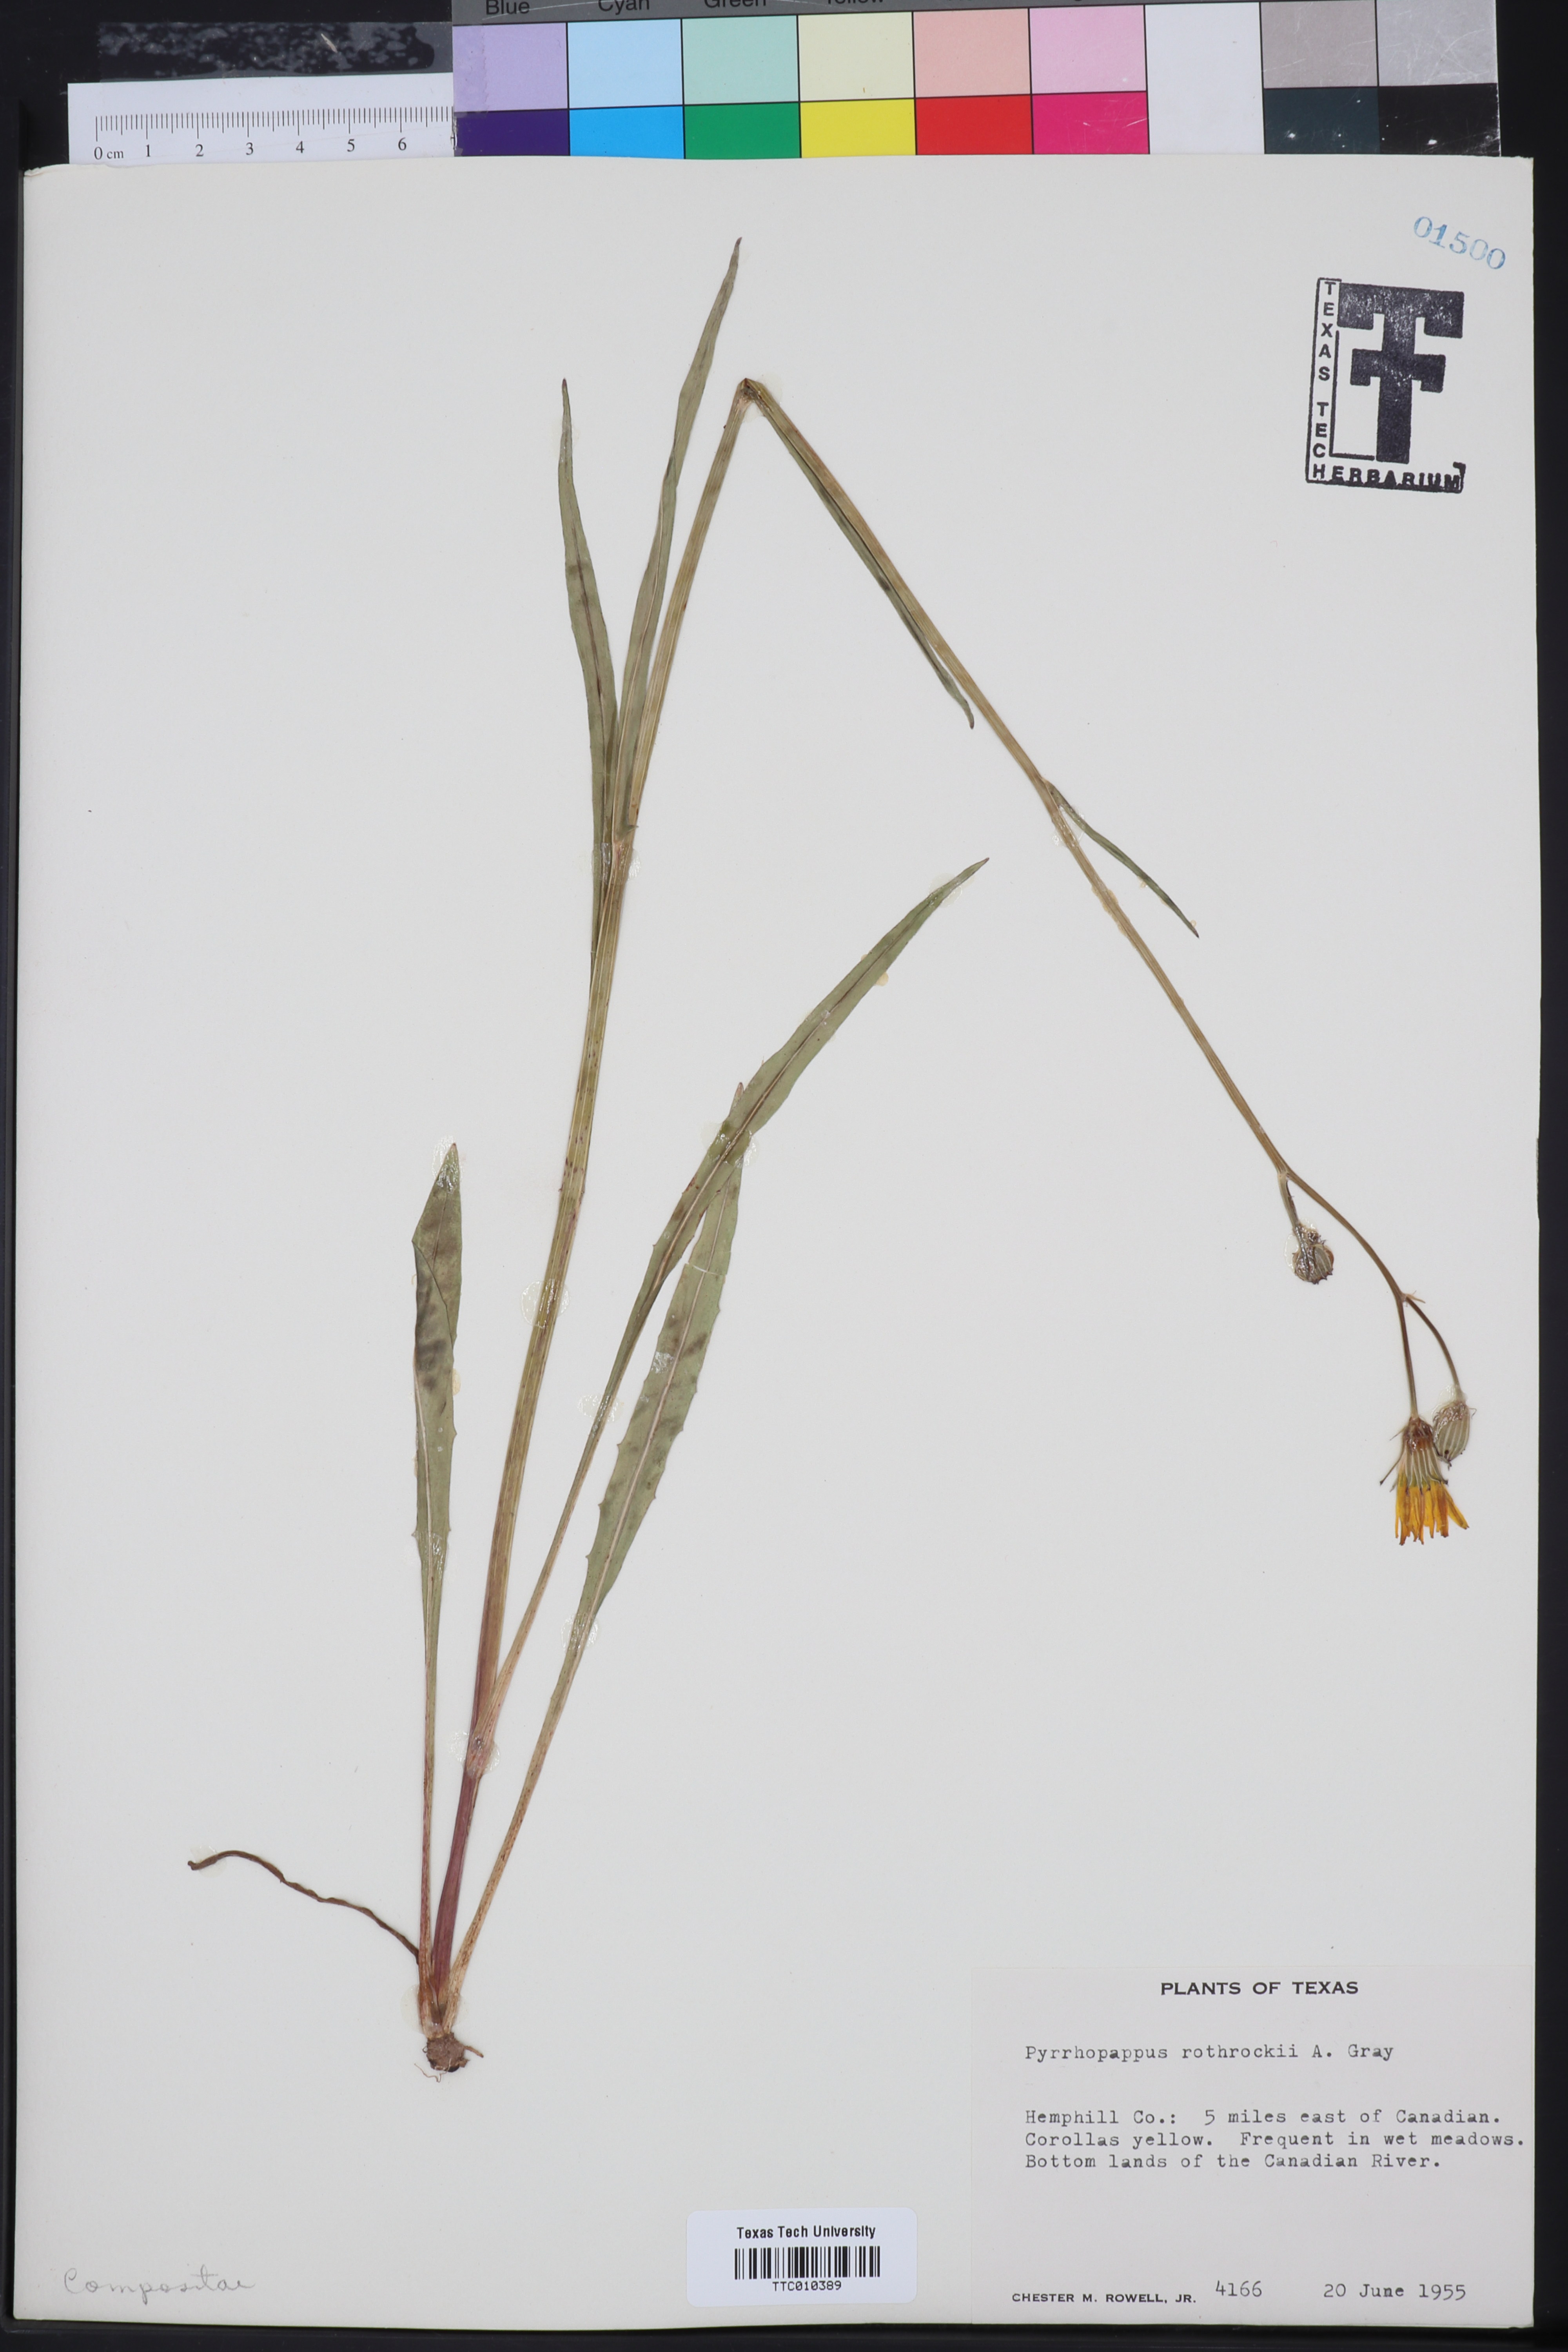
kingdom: Plantae
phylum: Tracheophyta
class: Magnoliopsida
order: Asterales
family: Asteraceae
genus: Pyrrhopappus
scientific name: Pyrrhopappus rothrockii
